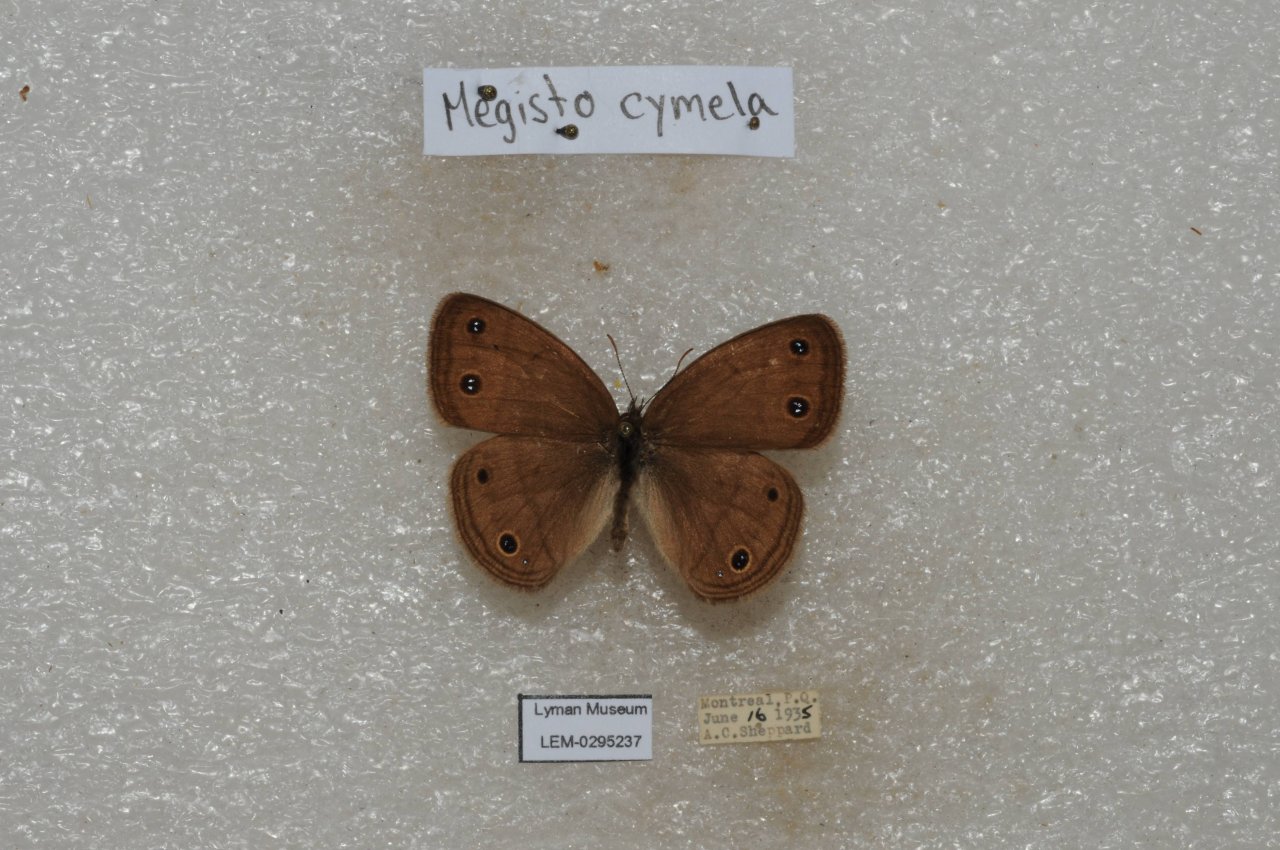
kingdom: Animalia
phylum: Arthropoda
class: Insecta
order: Lepidoptera
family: Nymphalidae
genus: Euptychia
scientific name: Euptychia cymela
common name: Little Wood Satyr
